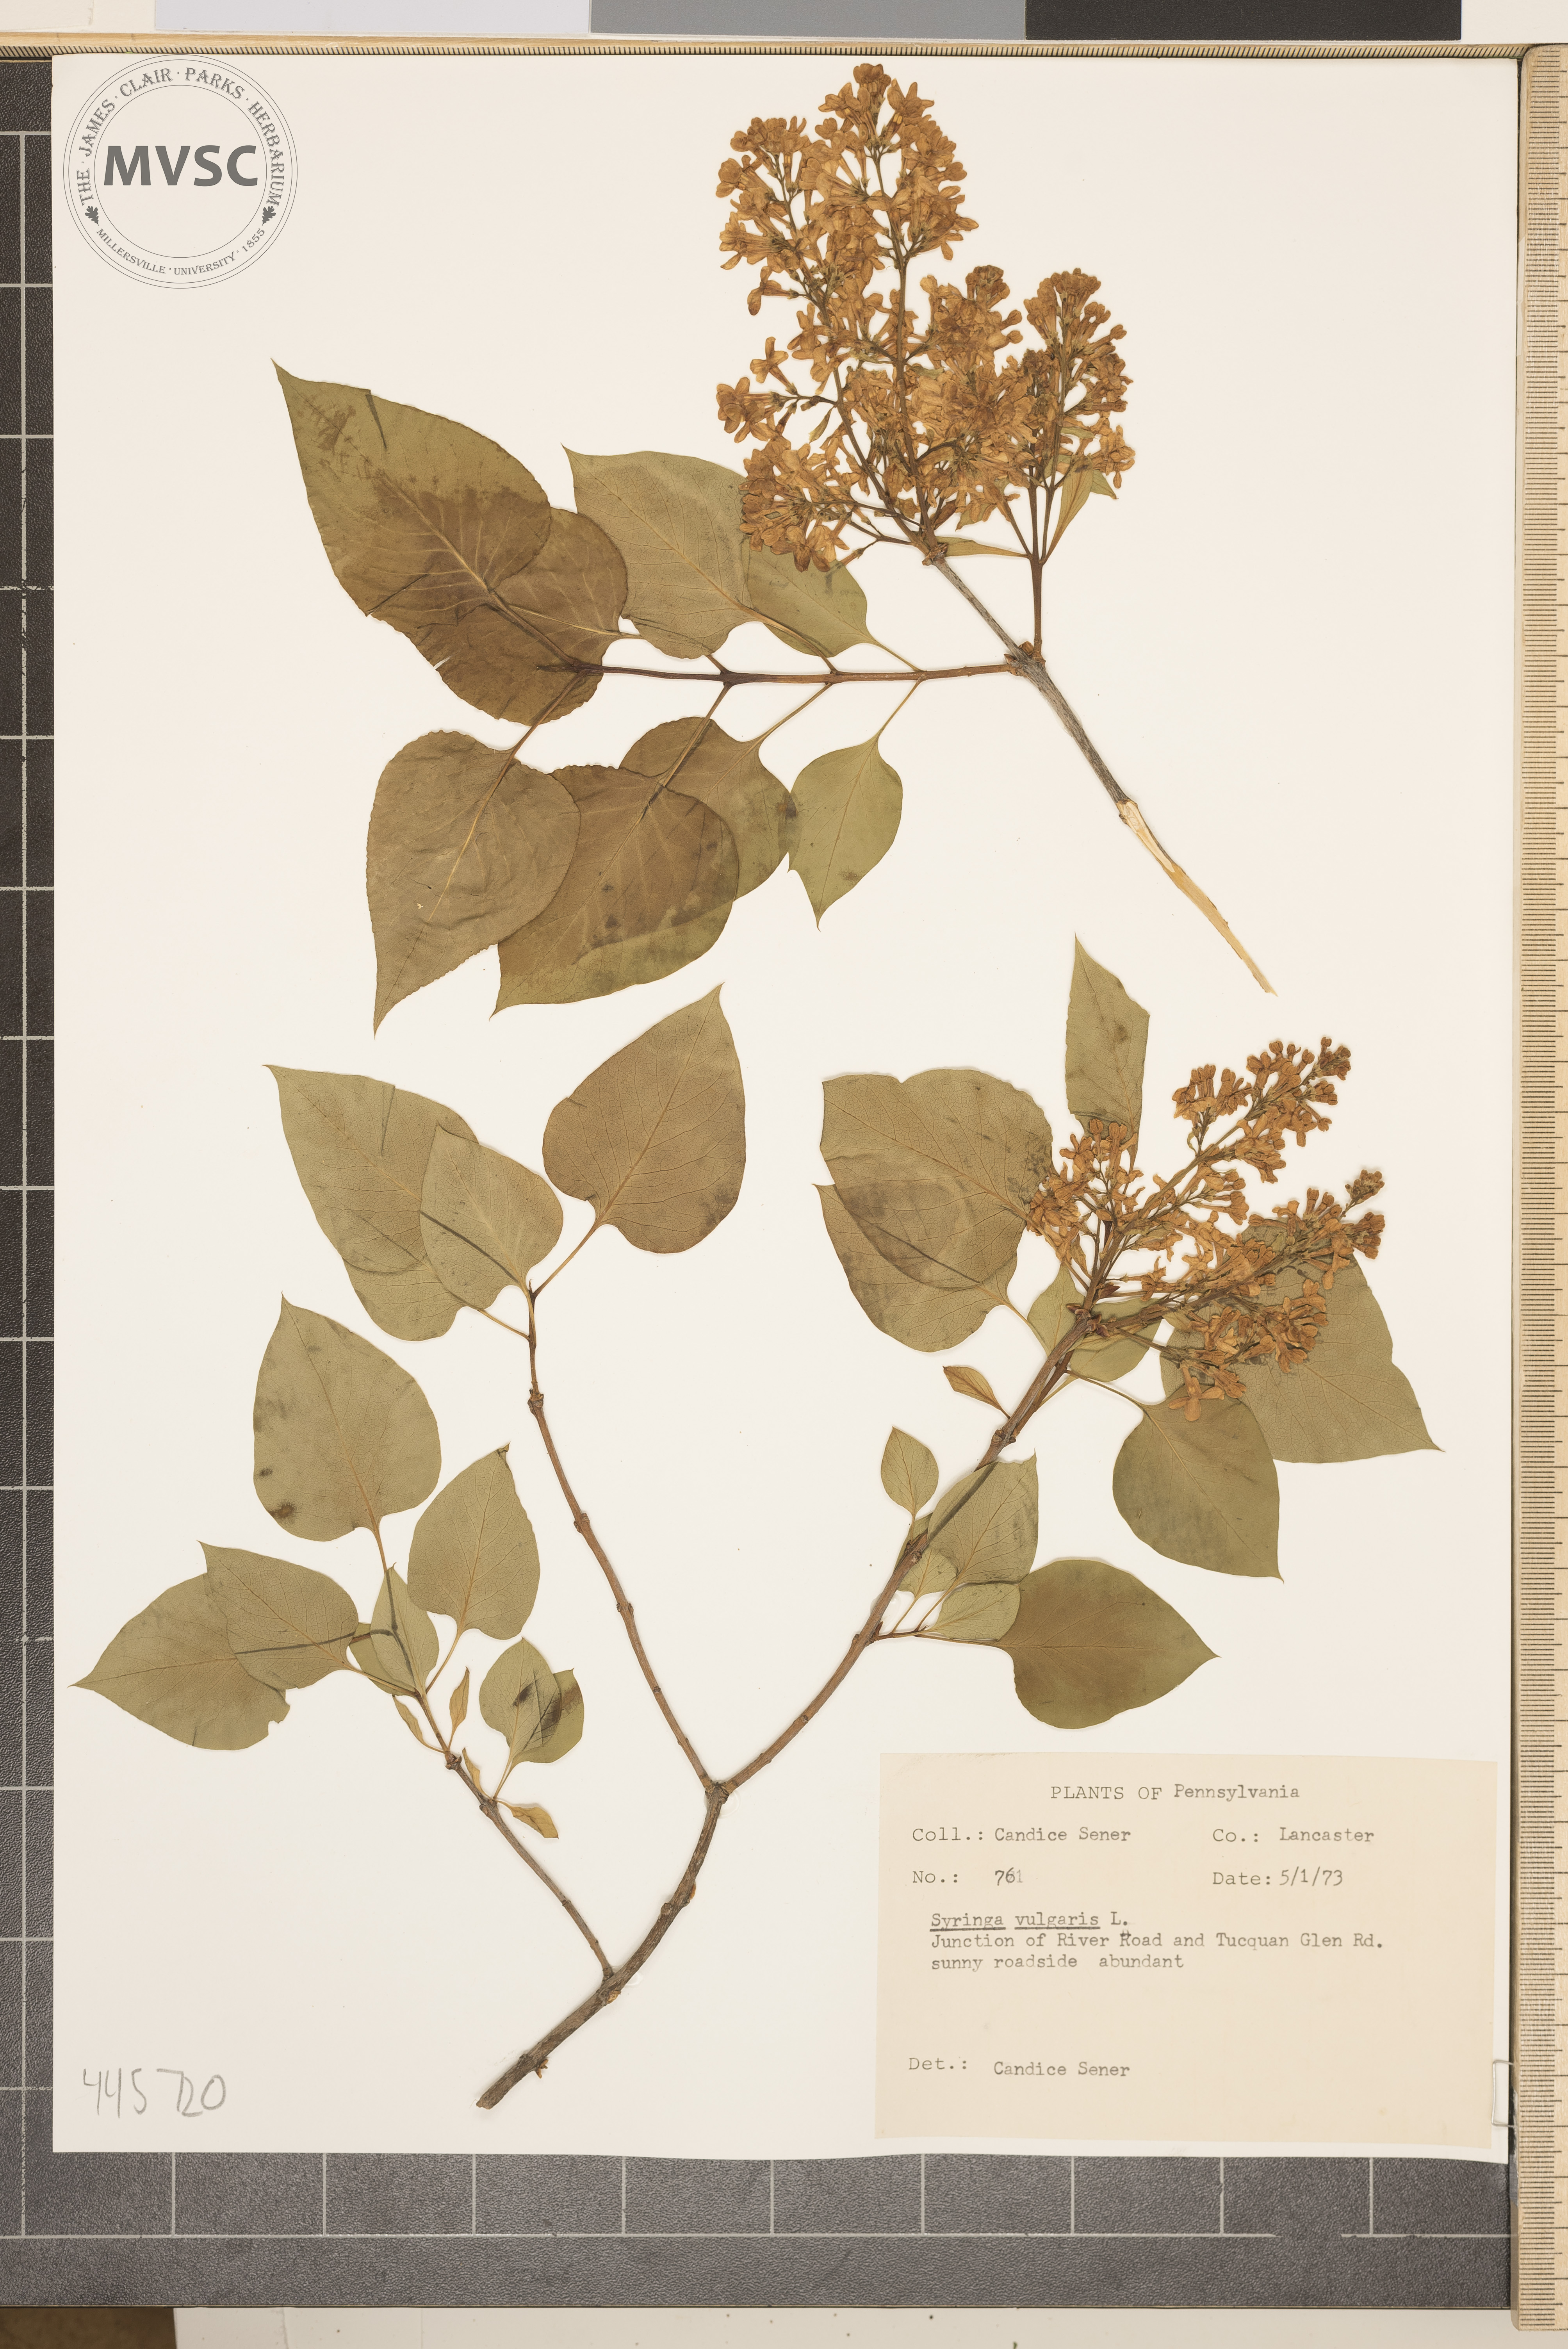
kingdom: Plantae
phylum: Tracheophyta
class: Magnoliopsida
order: Lamiales
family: Oleaceae
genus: Syringa
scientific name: Syringa vulgaris
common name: Common lilac
